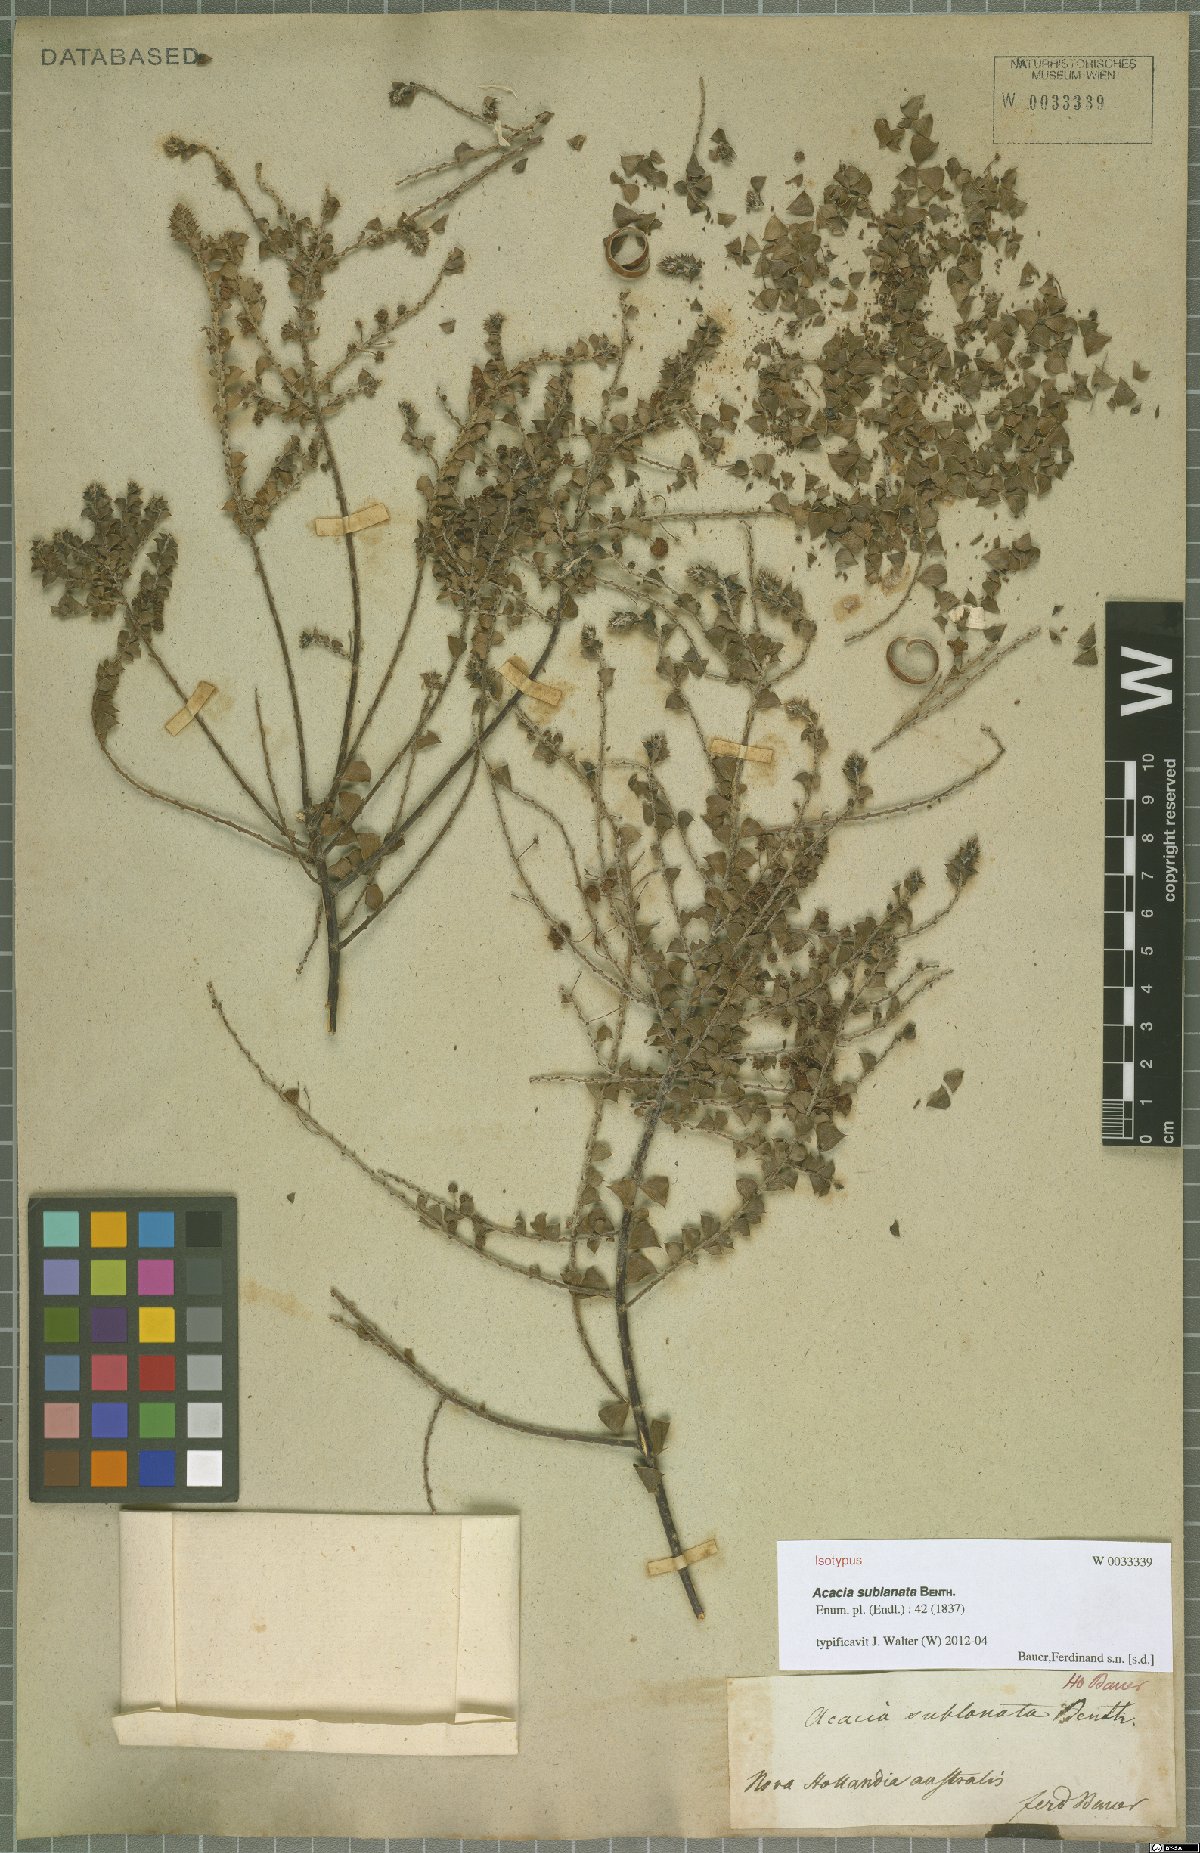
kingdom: Plantae
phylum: Tracheophyta
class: Magnoliopsida
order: Fabales
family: Fabaceae
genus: Acacia
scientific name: Acacia sublanata
